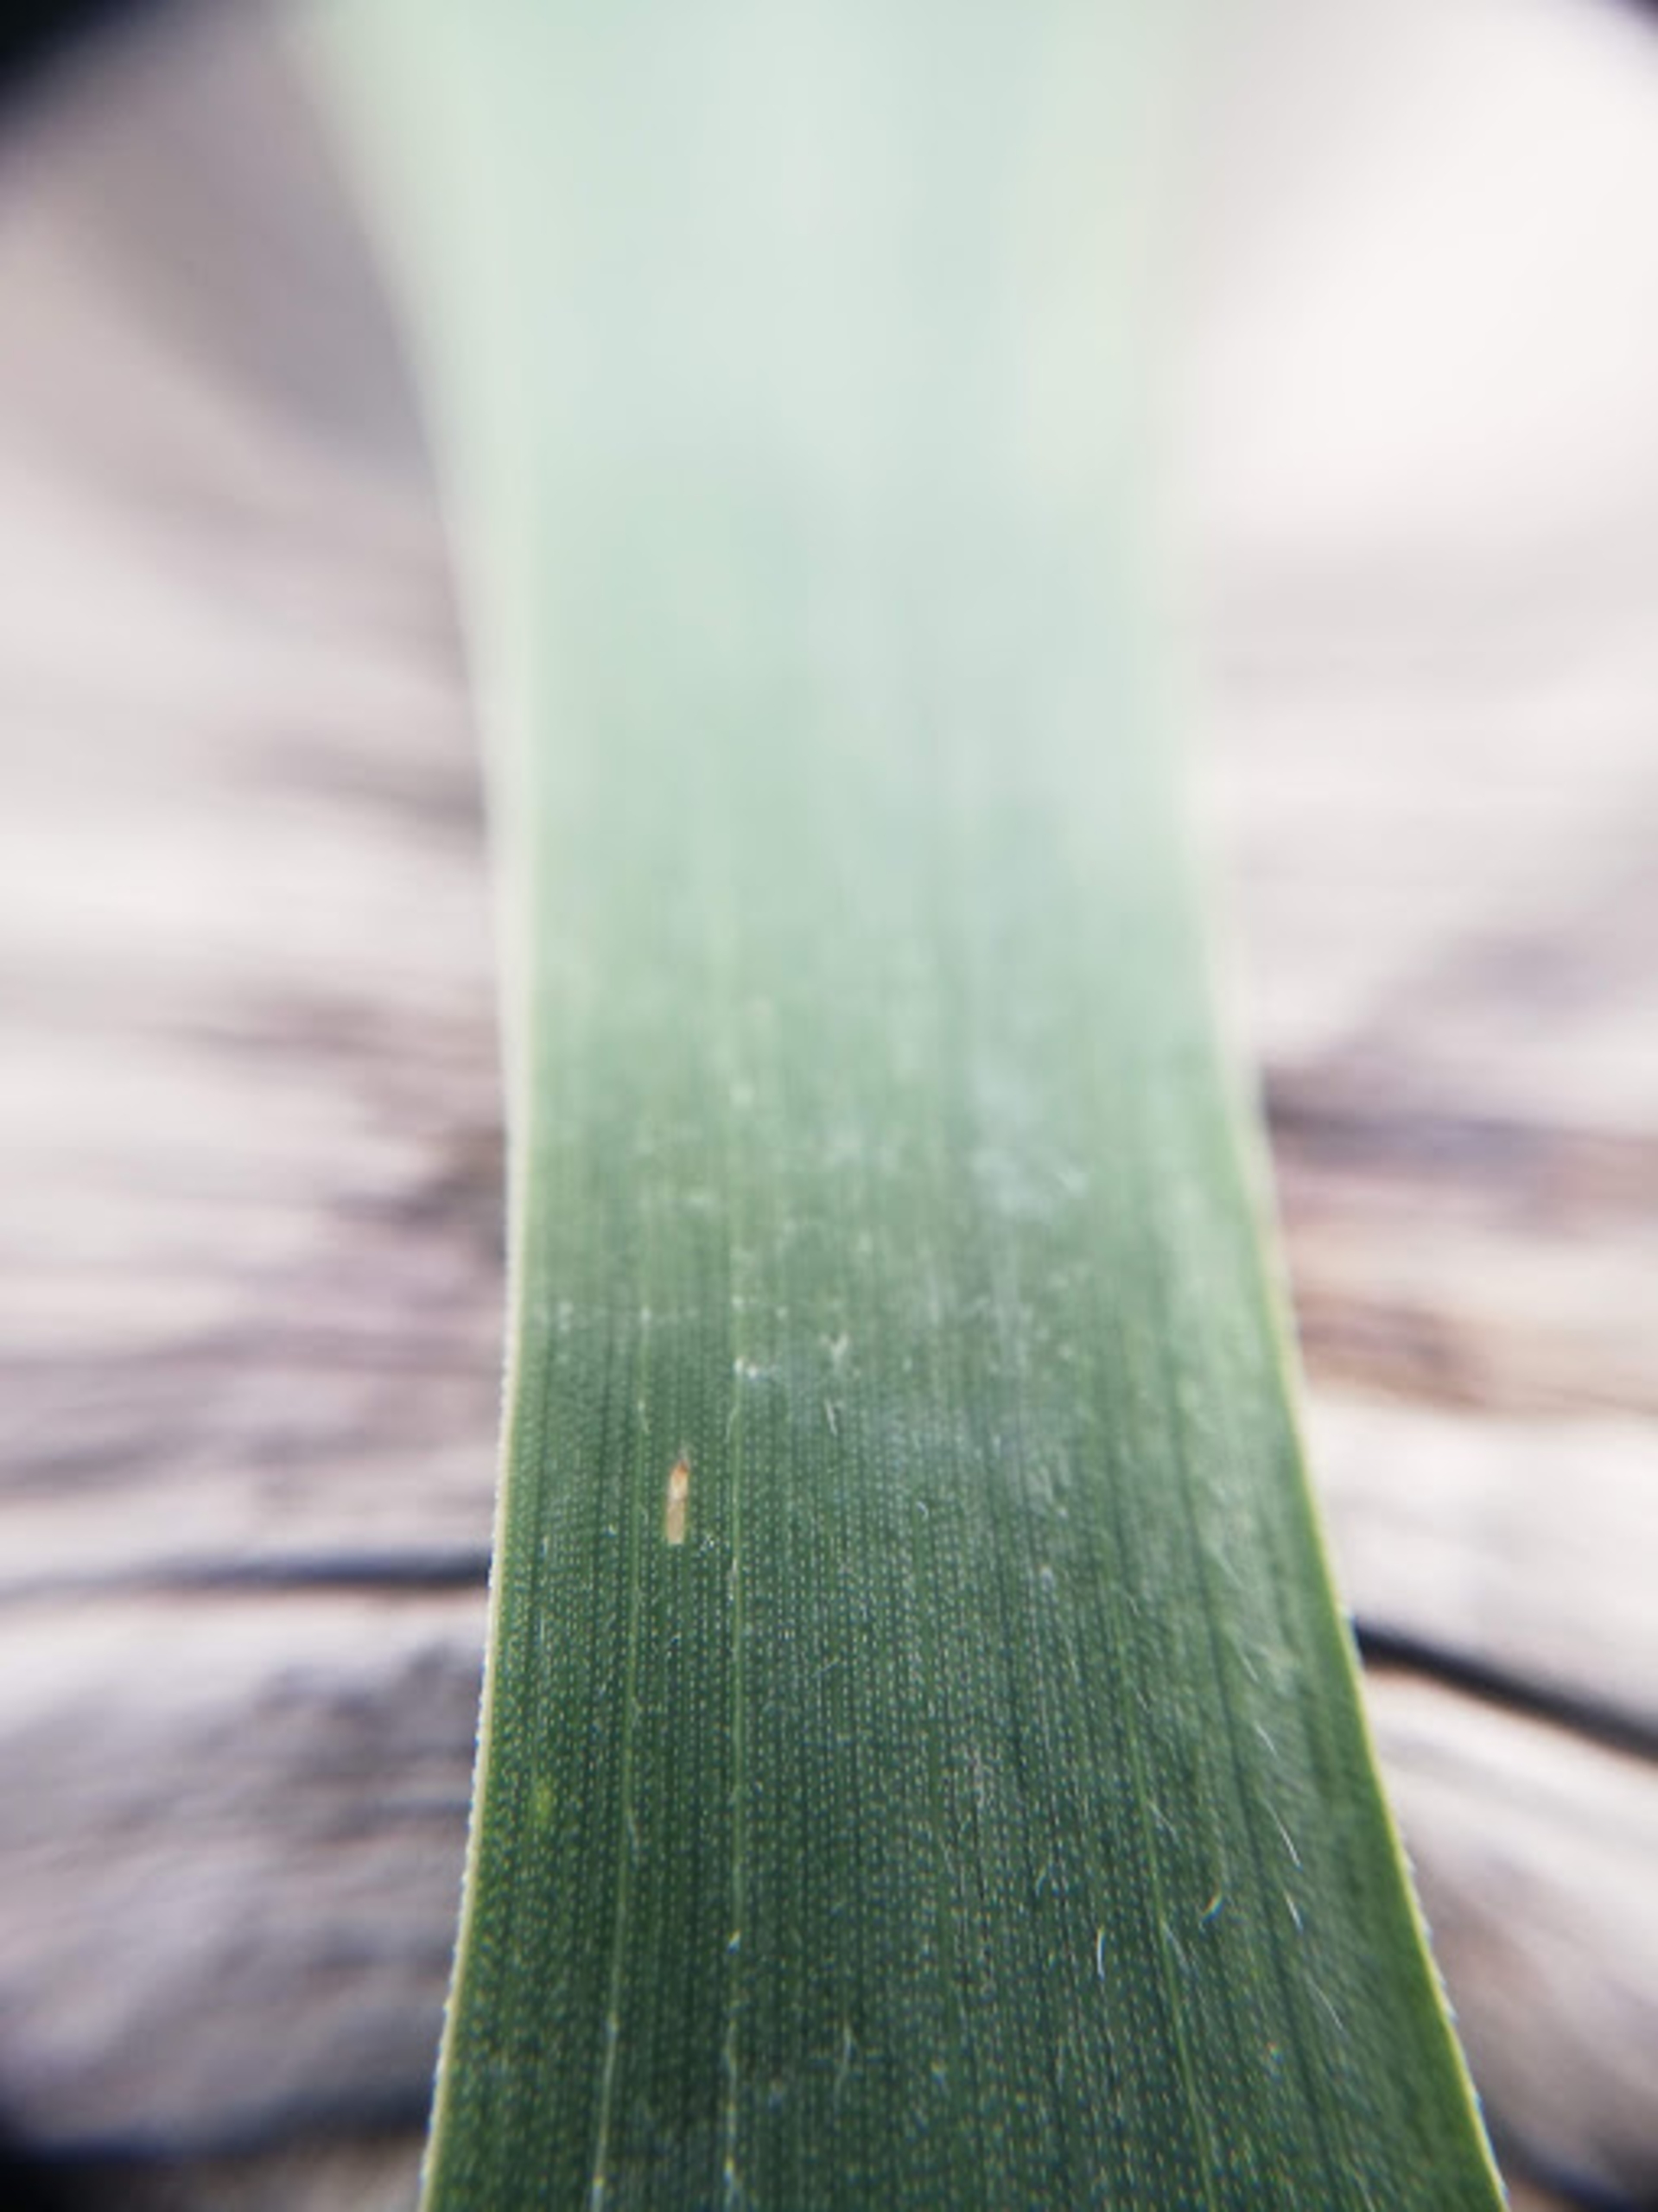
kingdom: Plantae
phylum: Tracheophyta
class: Liliopsida
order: Poales
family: Poaceae
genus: Elymus
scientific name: Elymus repens
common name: Almindelig kvik
